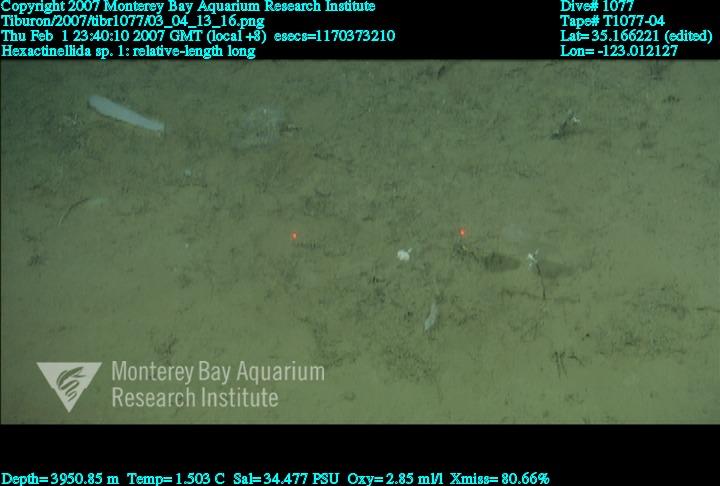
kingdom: Animalia
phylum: Porifera
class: Hexactinellida
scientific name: Hexactinellida
